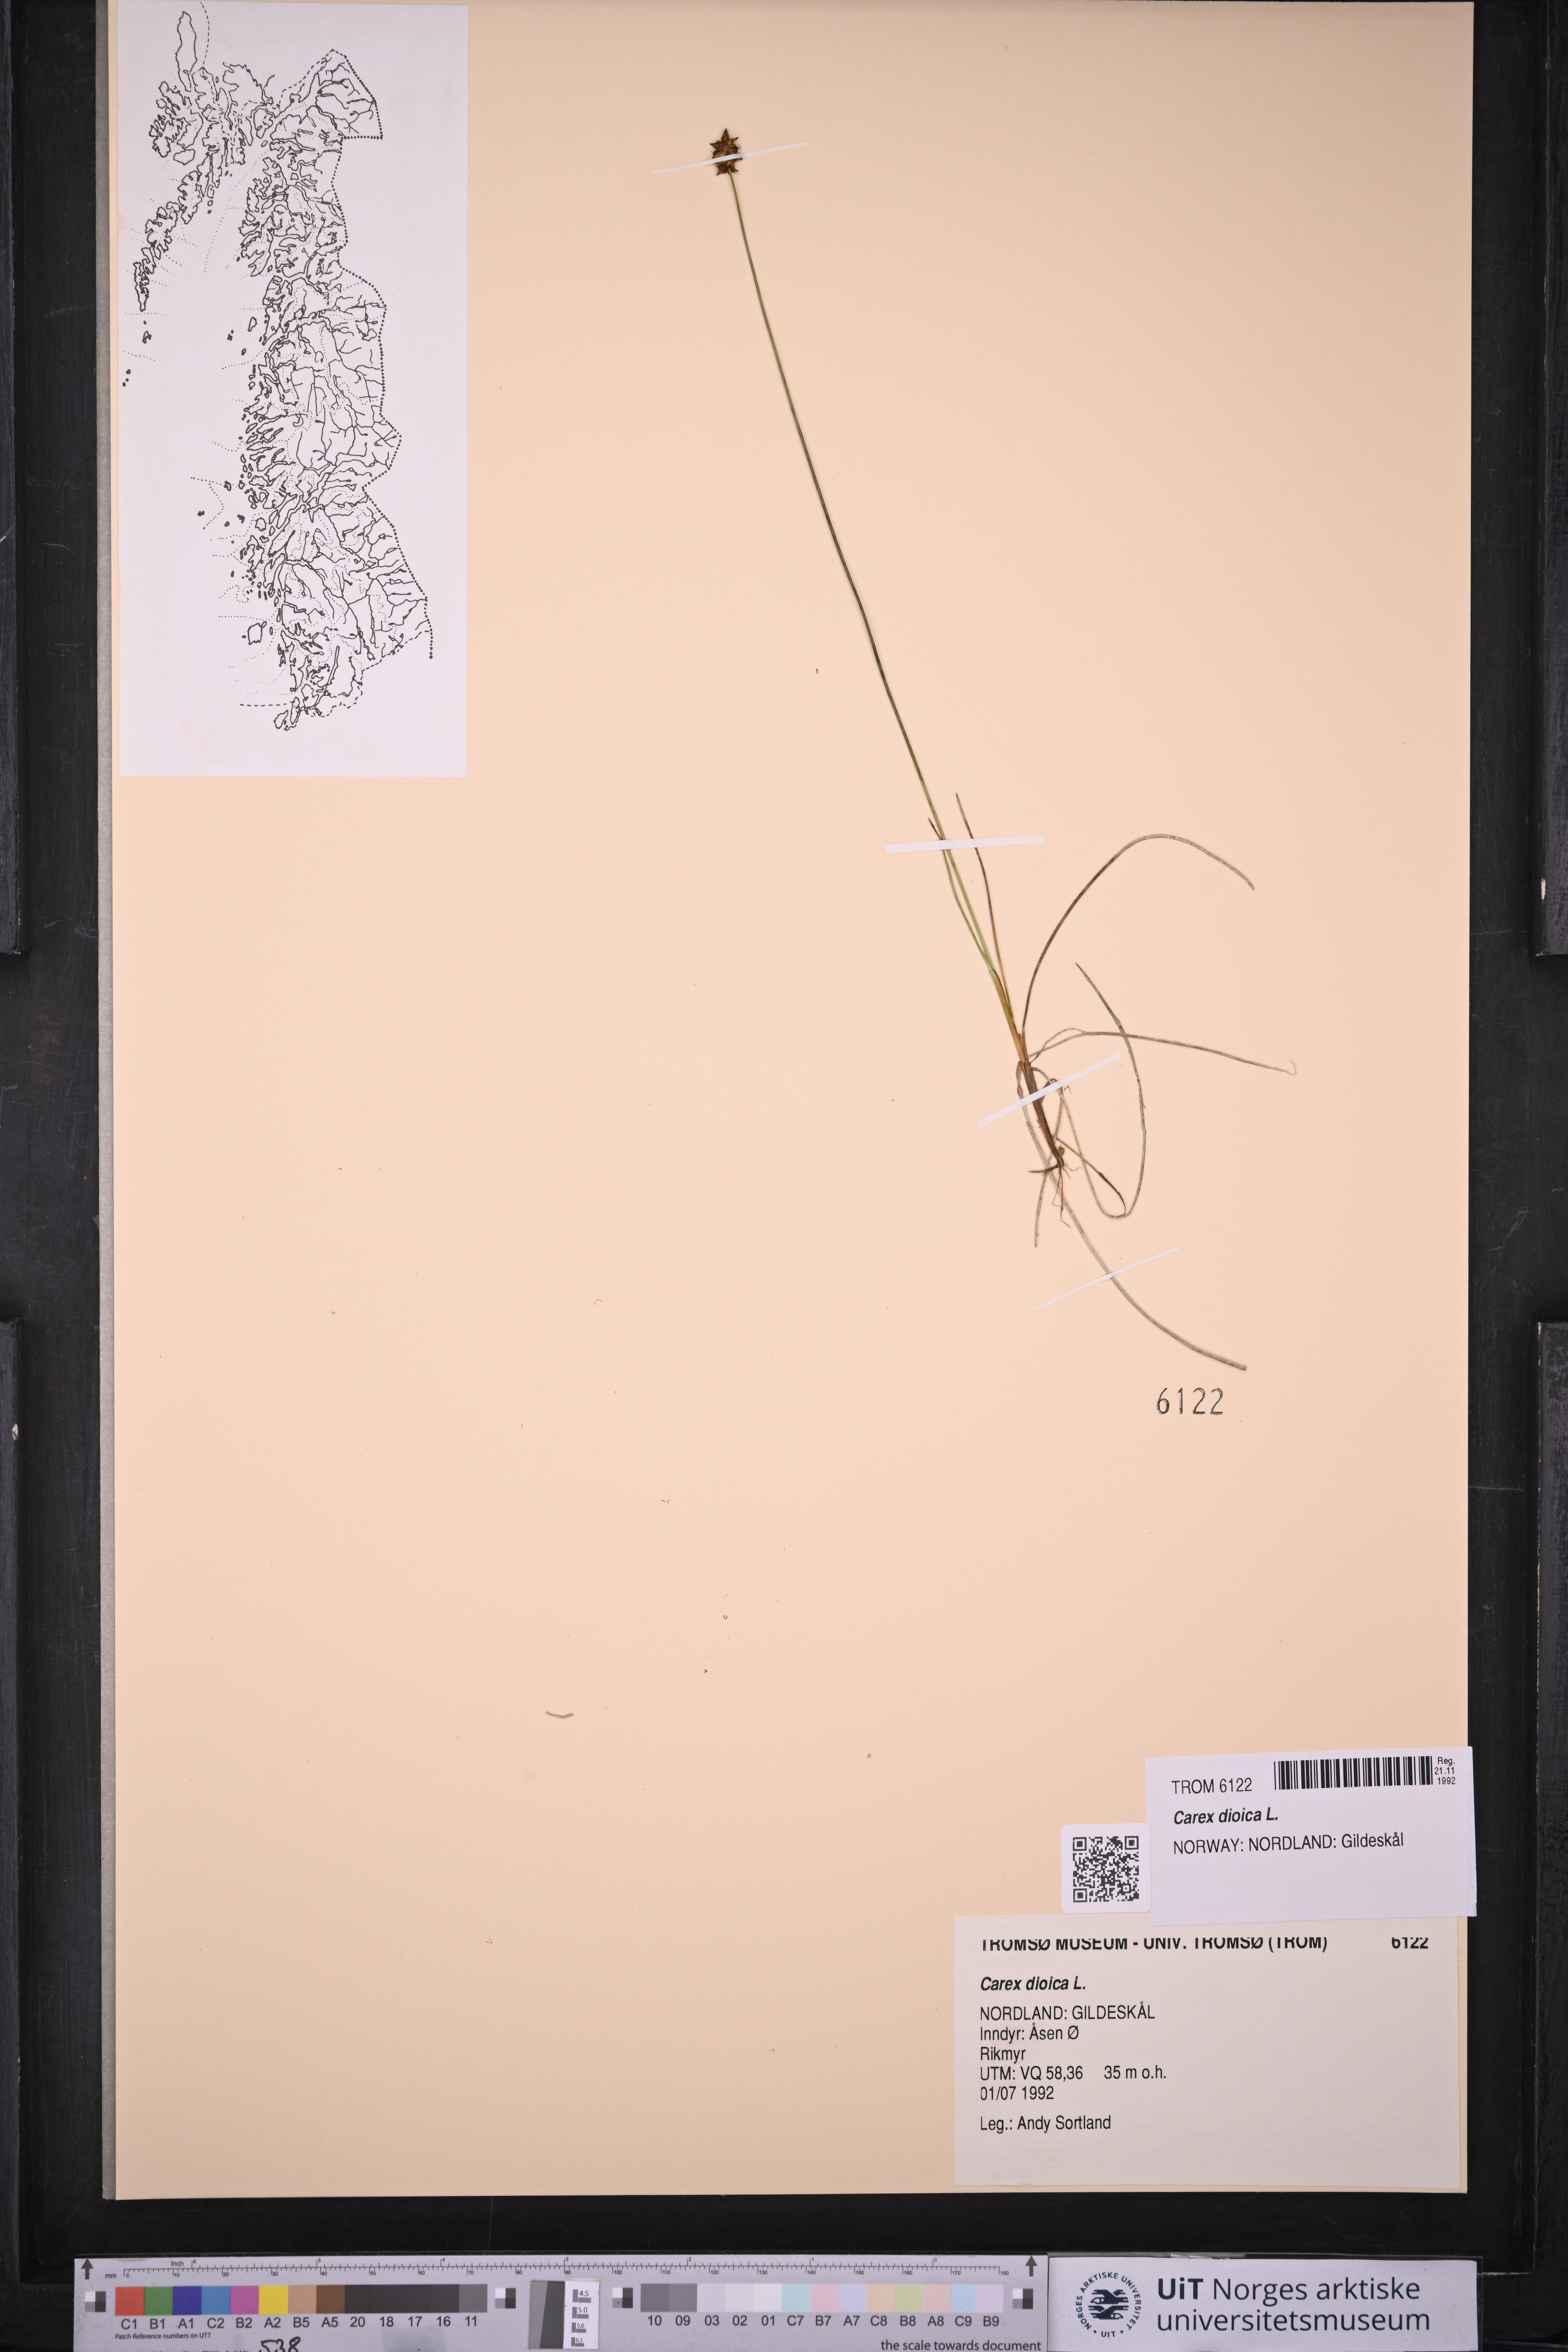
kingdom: Plantae
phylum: Tracheophyta
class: Liliopsida
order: Poales
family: Cyperaceae
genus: Carex
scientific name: Carex dioica
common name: Dioecious sedge
